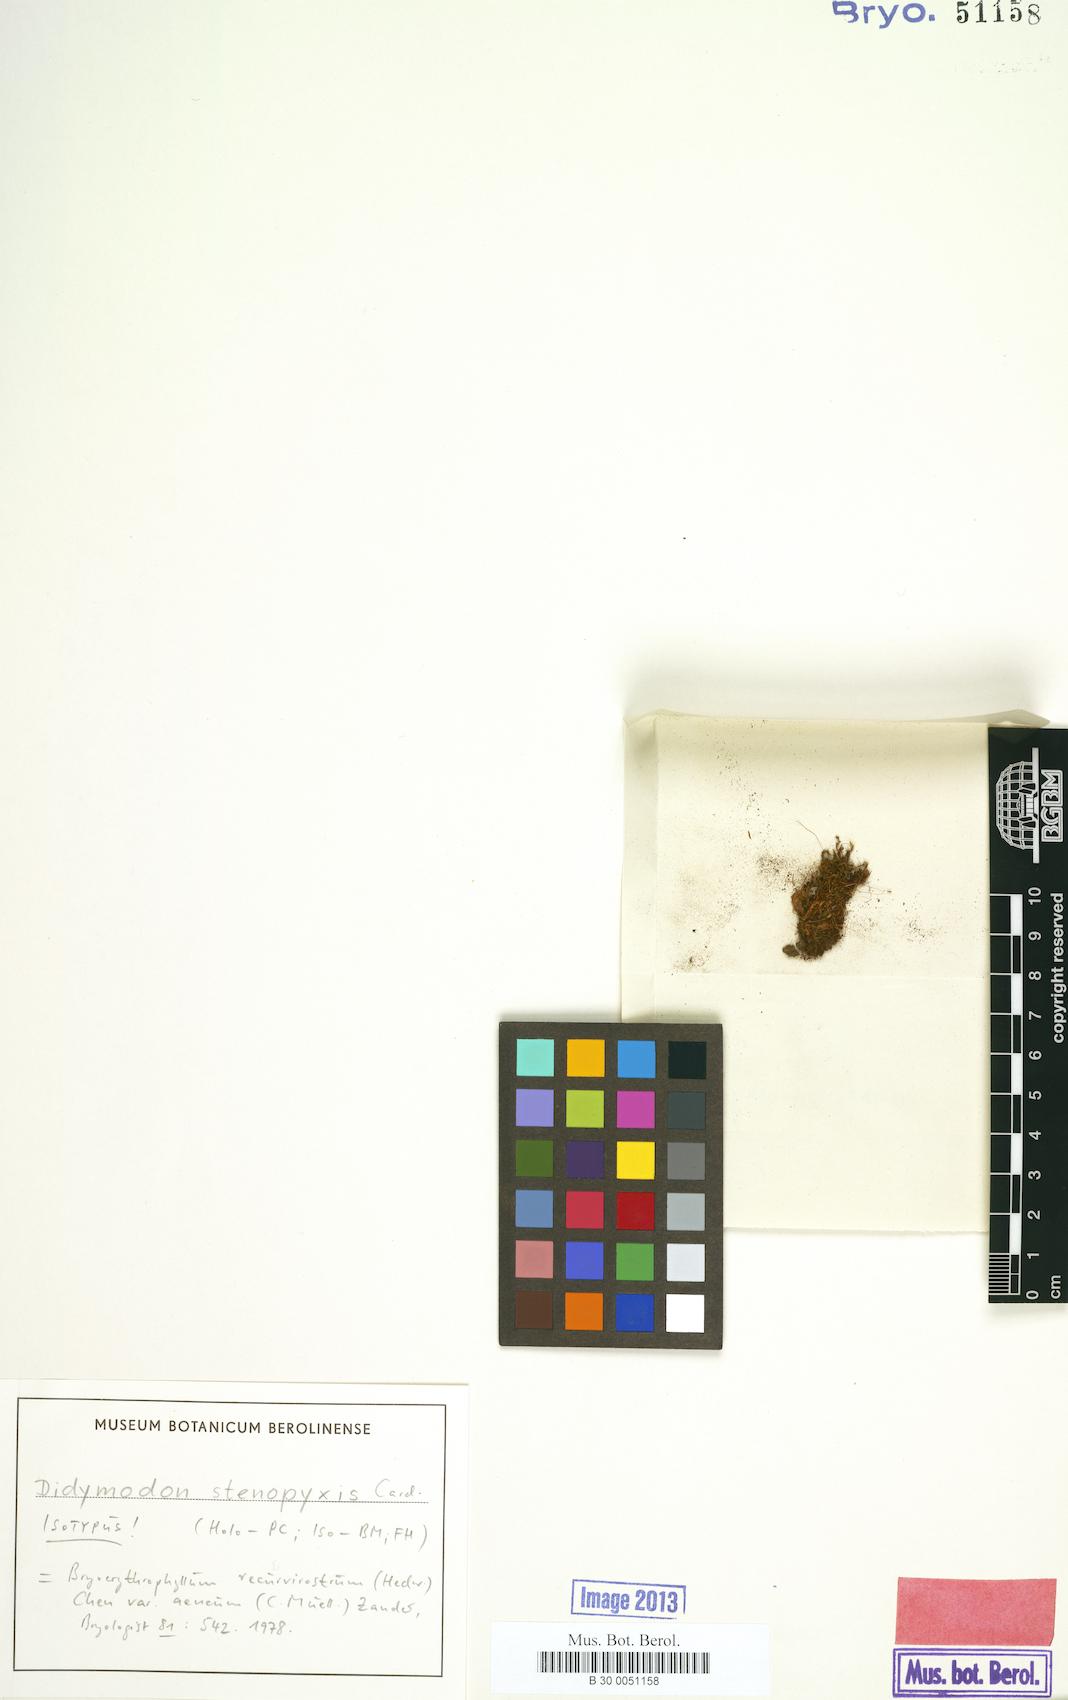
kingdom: Plantae
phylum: Bryophyta
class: Bryopsida
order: Pottiales
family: Pottiaceae
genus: Bryoerythrophyllum
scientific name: Bryoerythrophyllum aeneum
